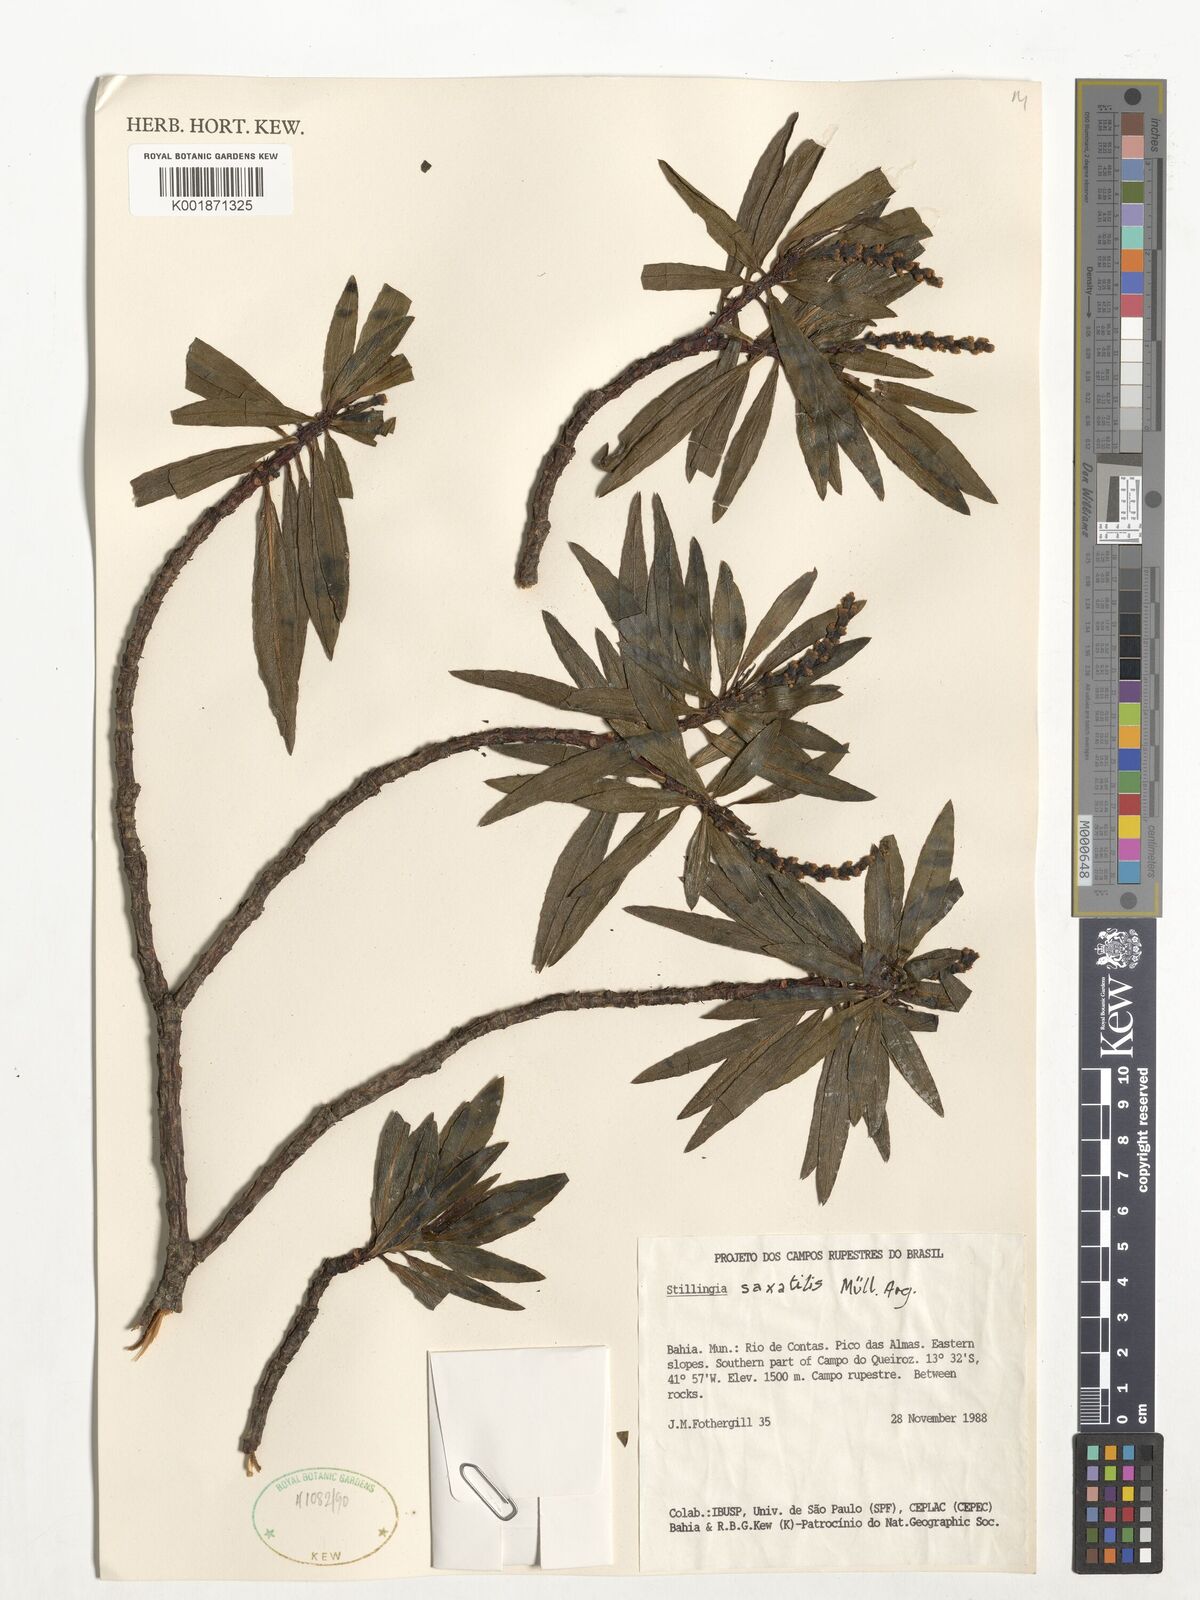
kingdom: Plantae
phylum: Tracheophyta
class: Magnoliopsida
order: Malpighiales
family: Euphorbiaceae
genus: Stillingia
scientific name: Stillingia saxatilis
